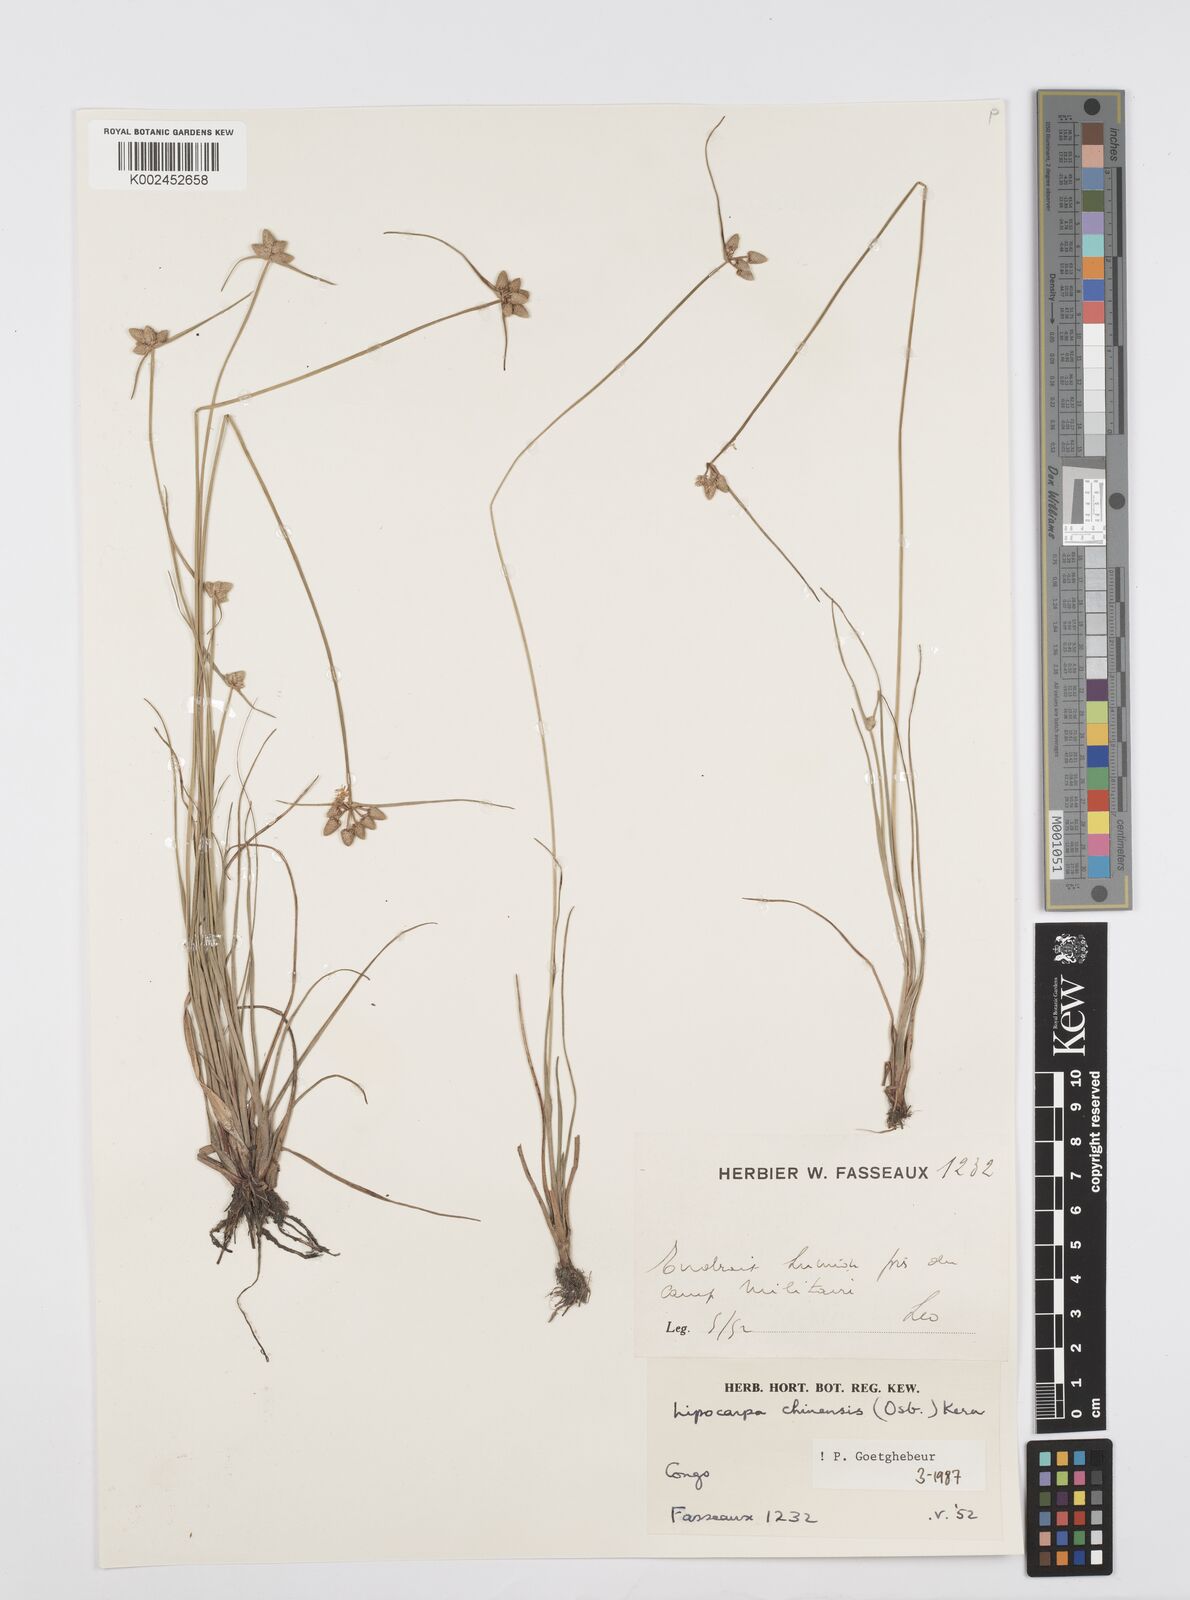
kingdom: Plantae
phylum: Tracheophyta
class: Liliopsida
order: Poales
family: Cyperaceae
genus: Cyperus
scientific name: Cyperus albescens
